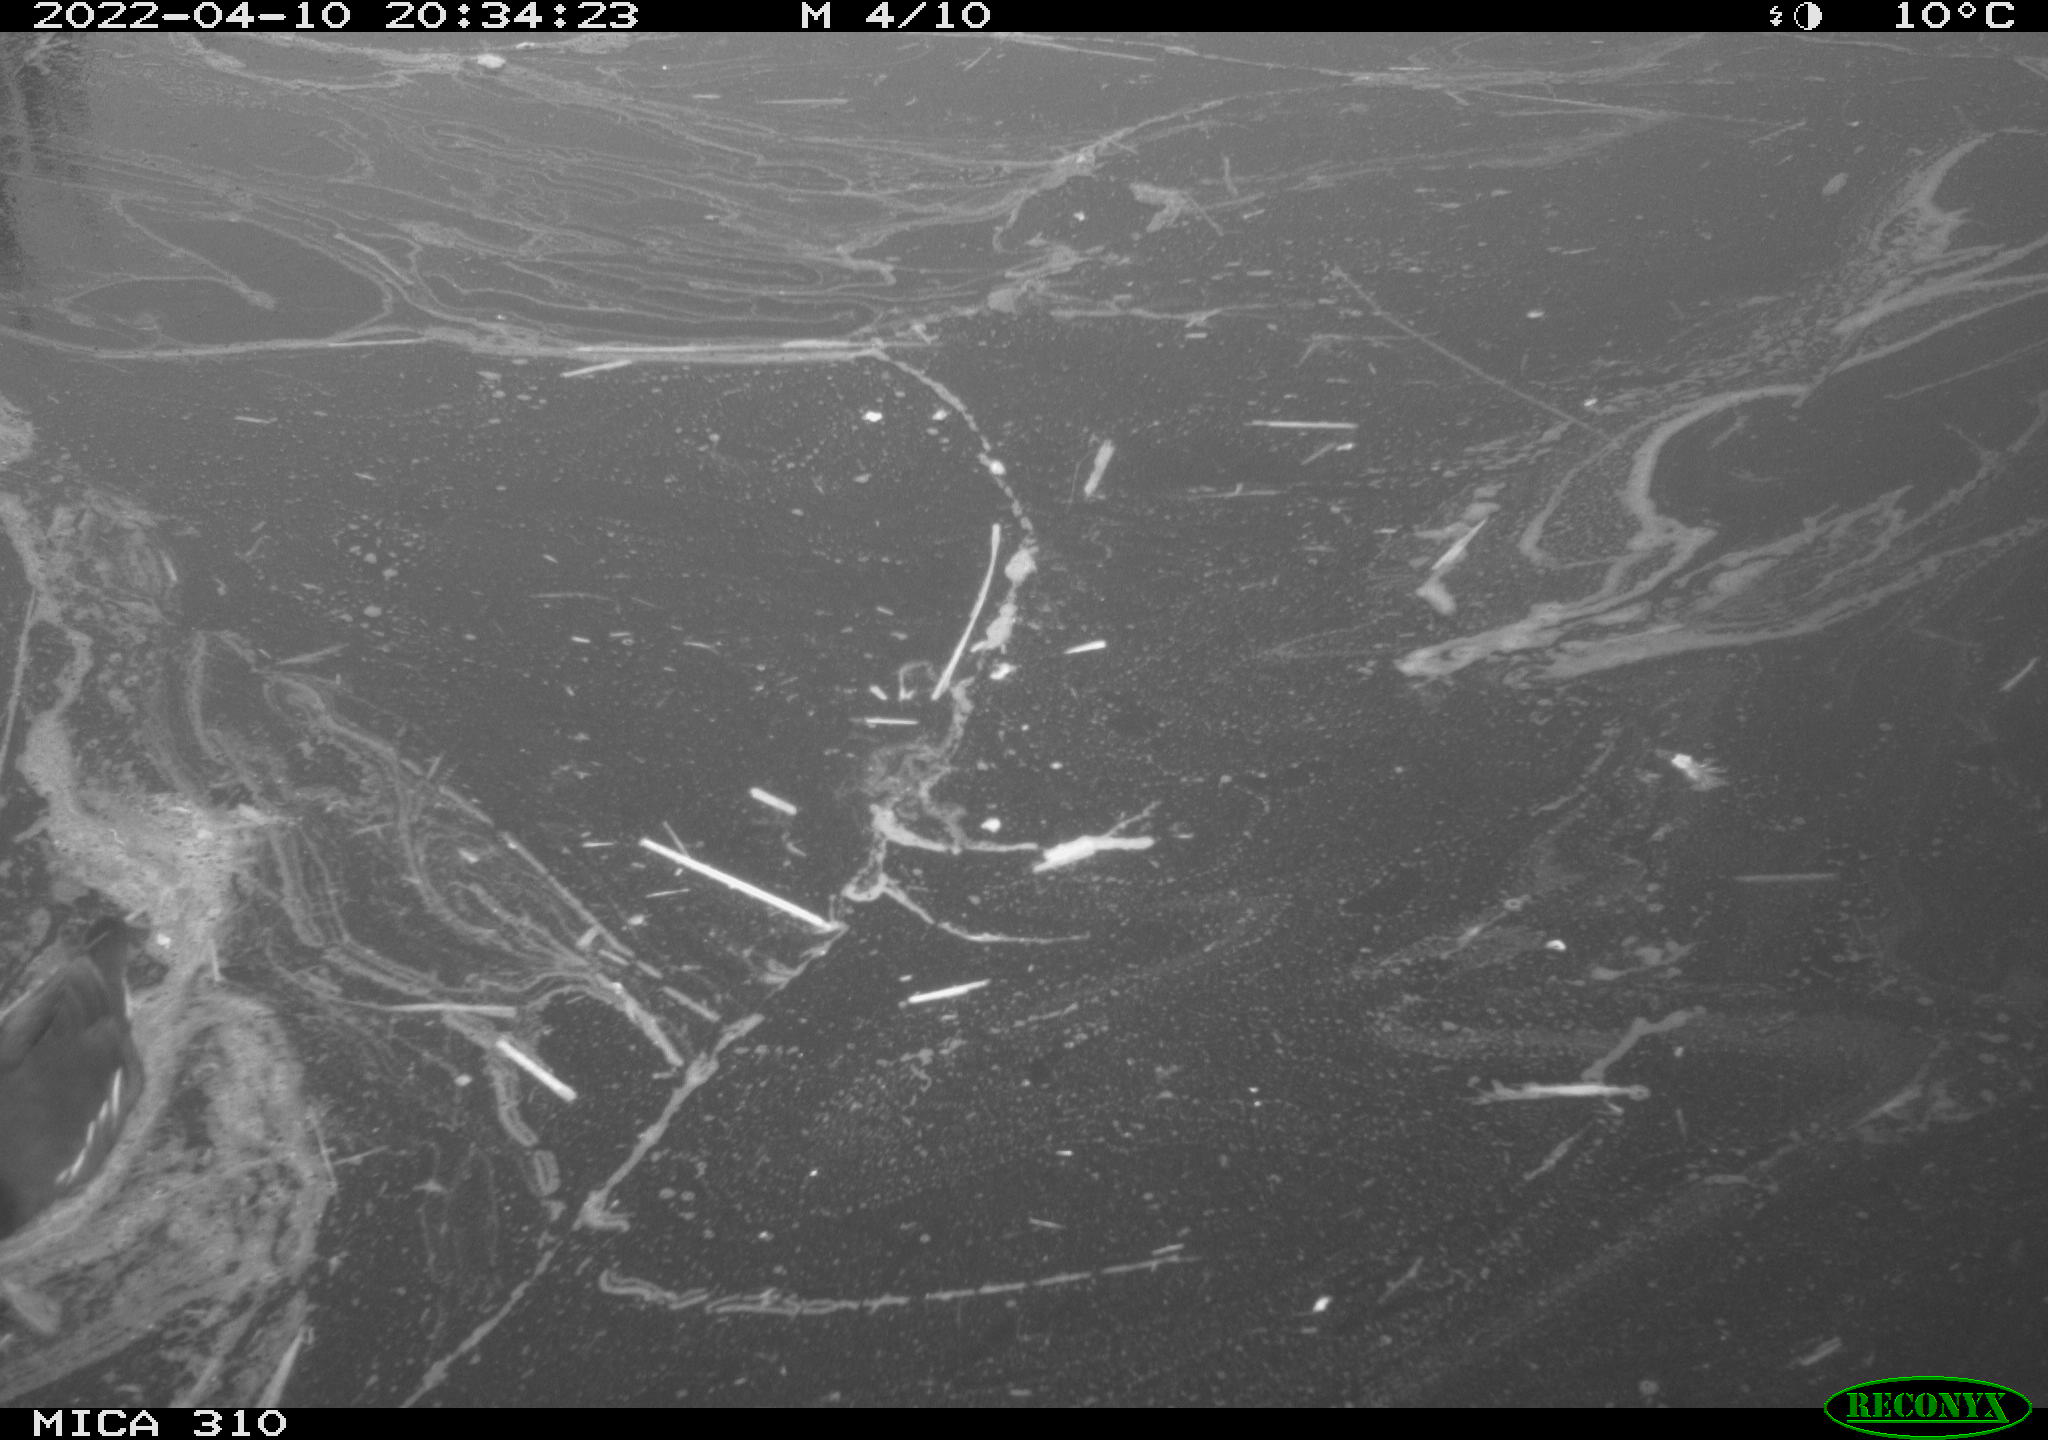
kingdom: Animalia
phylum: Chordata
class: Aves
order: Gruiformes
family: Rallidae
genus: Gallinula
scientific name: Gallinula chloropus
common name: Common moorhen
